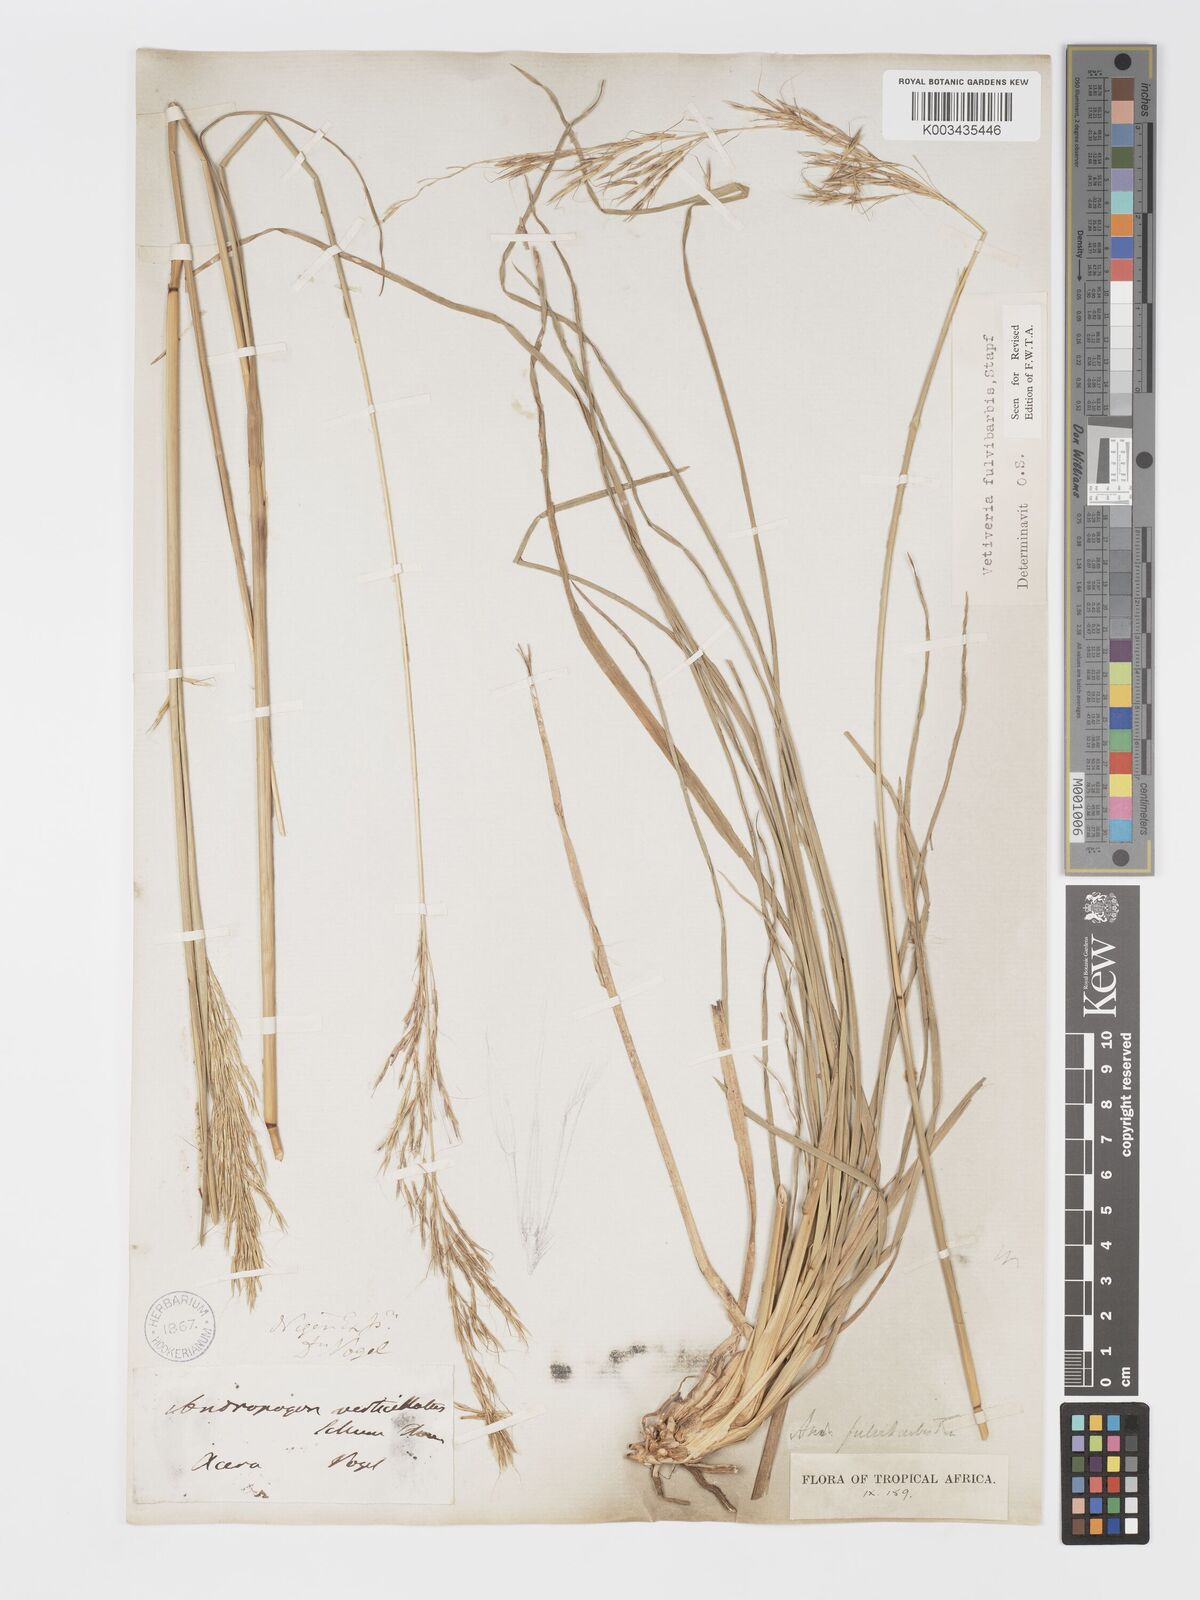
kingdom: Plantae
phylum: Tracheophyta
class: Liliopsida
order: Poales
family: Poaceae
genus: Chrysopogon
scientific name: Chrysopogon fulvibarbis
